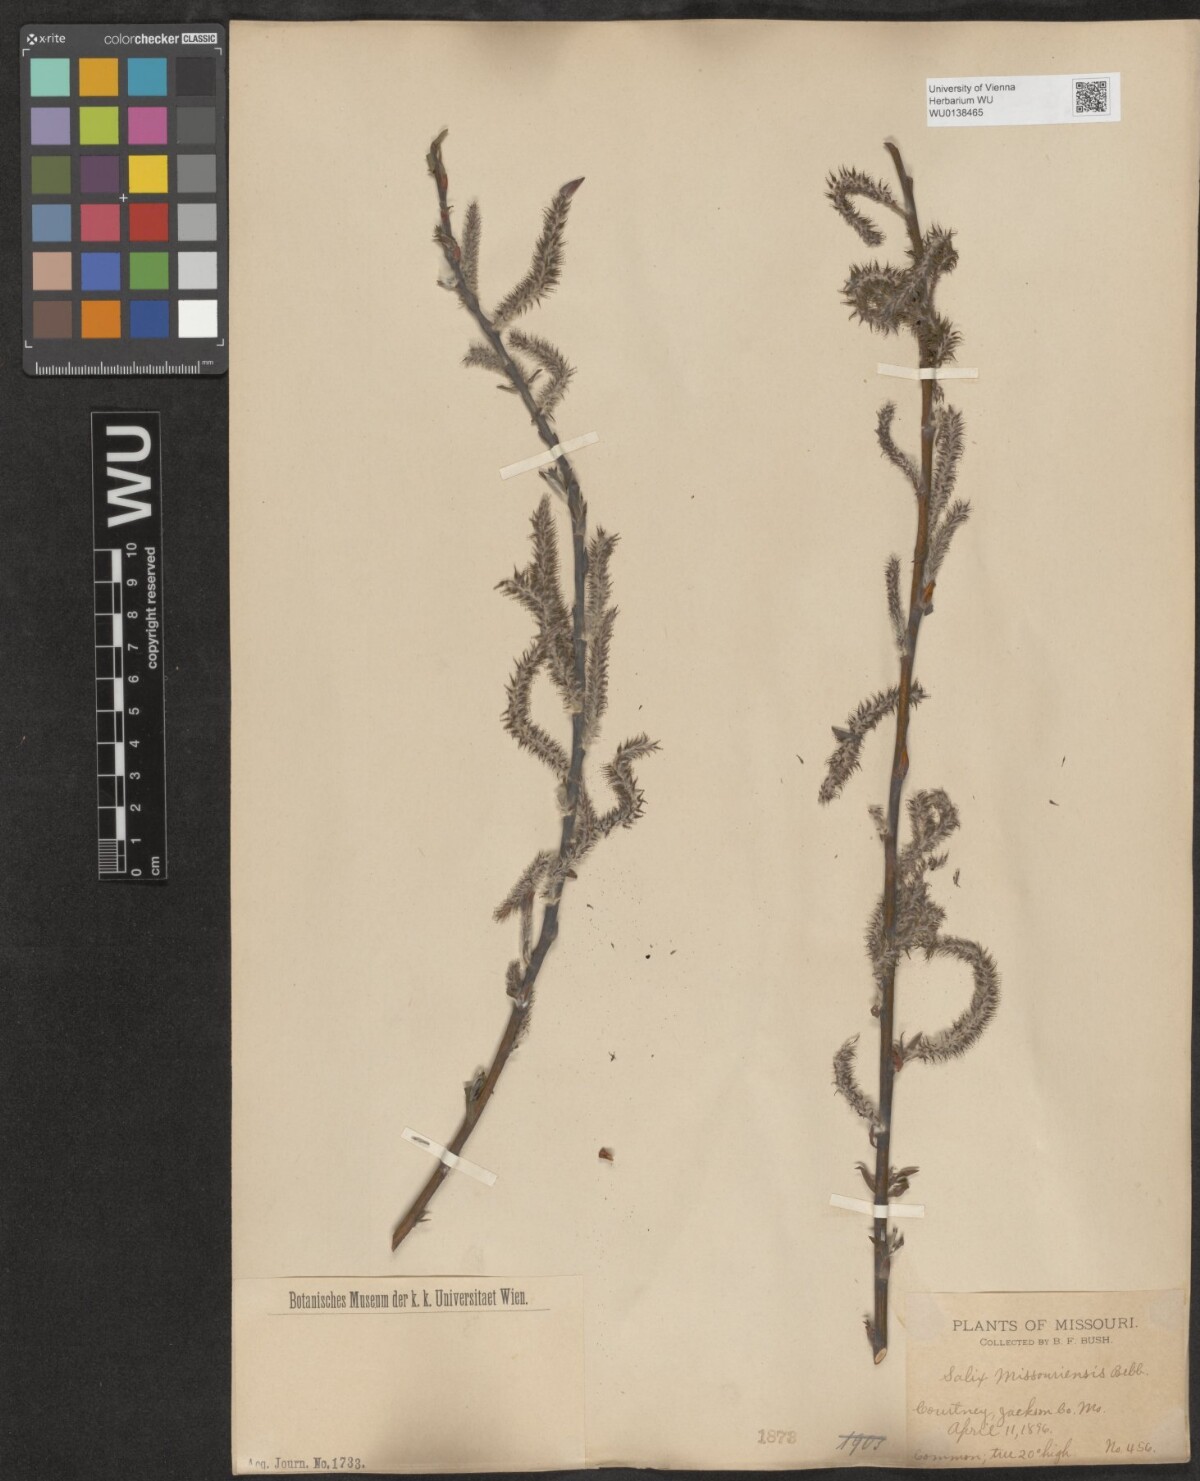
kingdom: Plantae
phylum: Tracheophyta
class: Magnoliopsida
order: Malpighiales
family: Salicaceae
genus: Salix
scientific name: Salix eriocephala
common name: Heart-leaved willow
